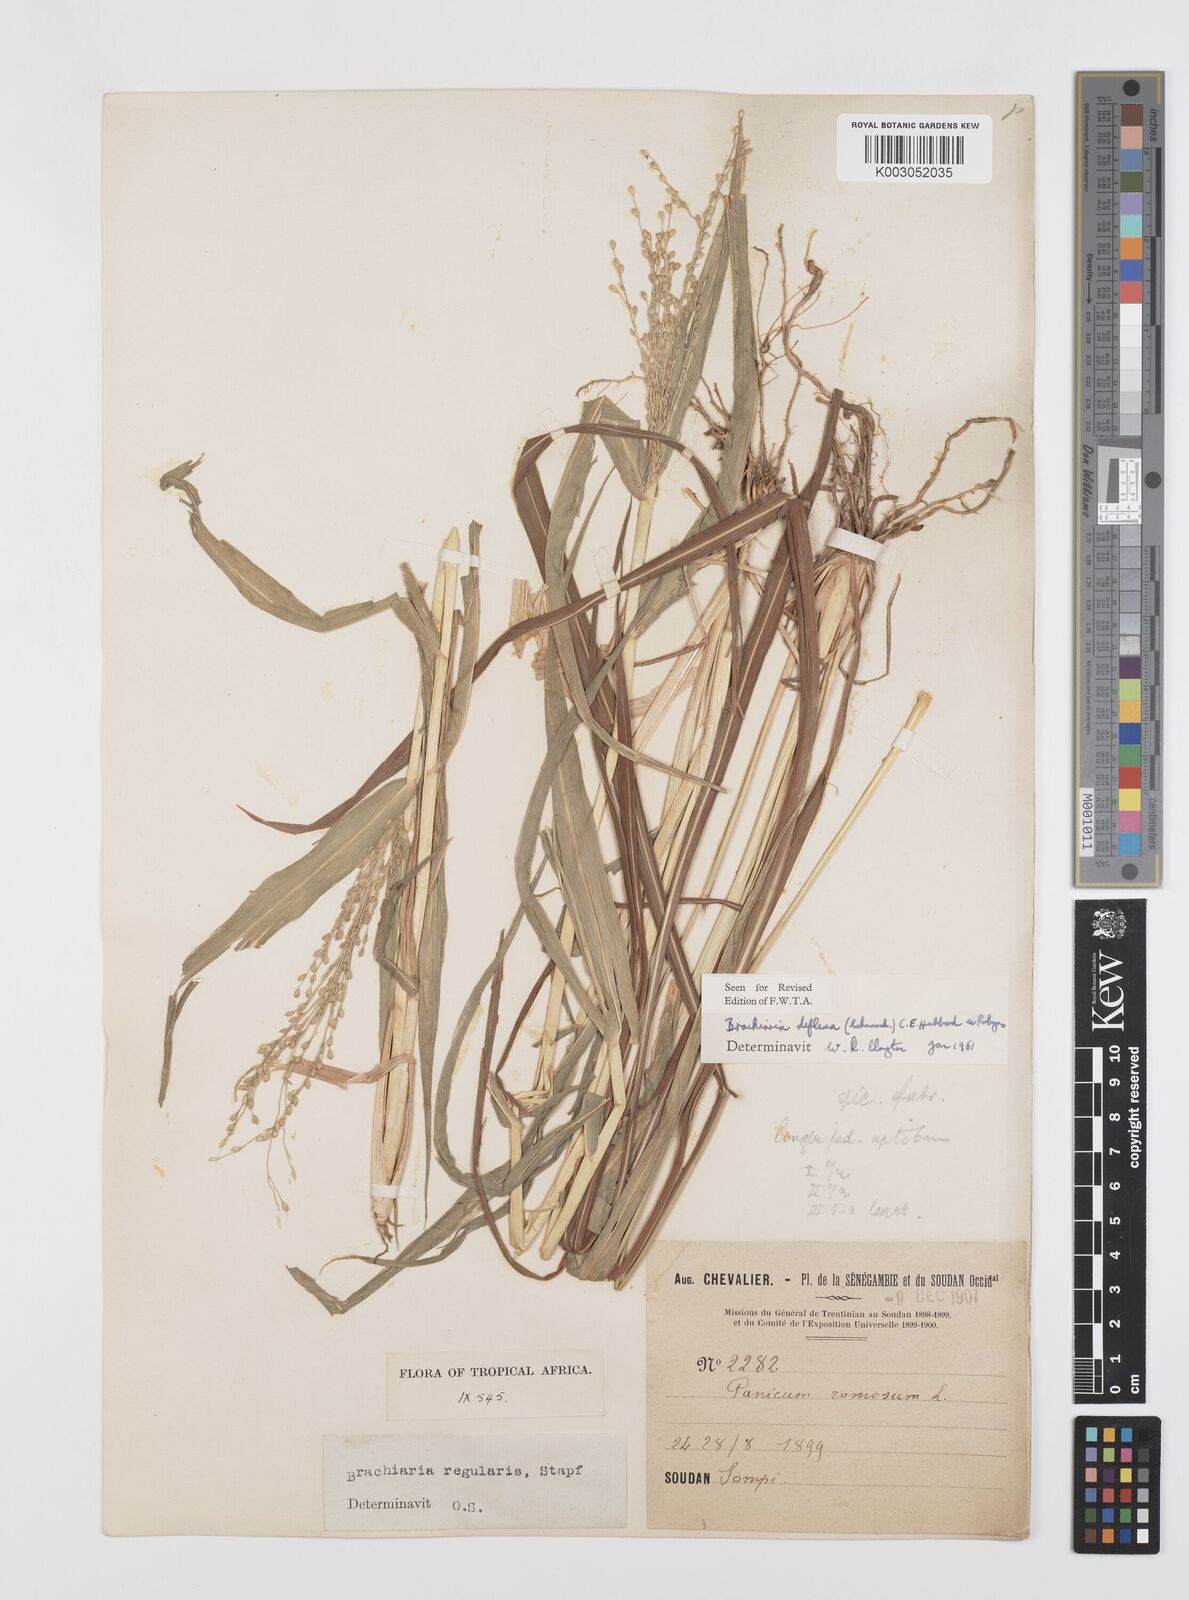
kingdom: Plantae
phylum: Tracheophyta
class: Liliopsida
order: Poales
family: Poaceae
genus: Urochloa
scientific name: Urochloa deflexa
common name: Guinea millet
